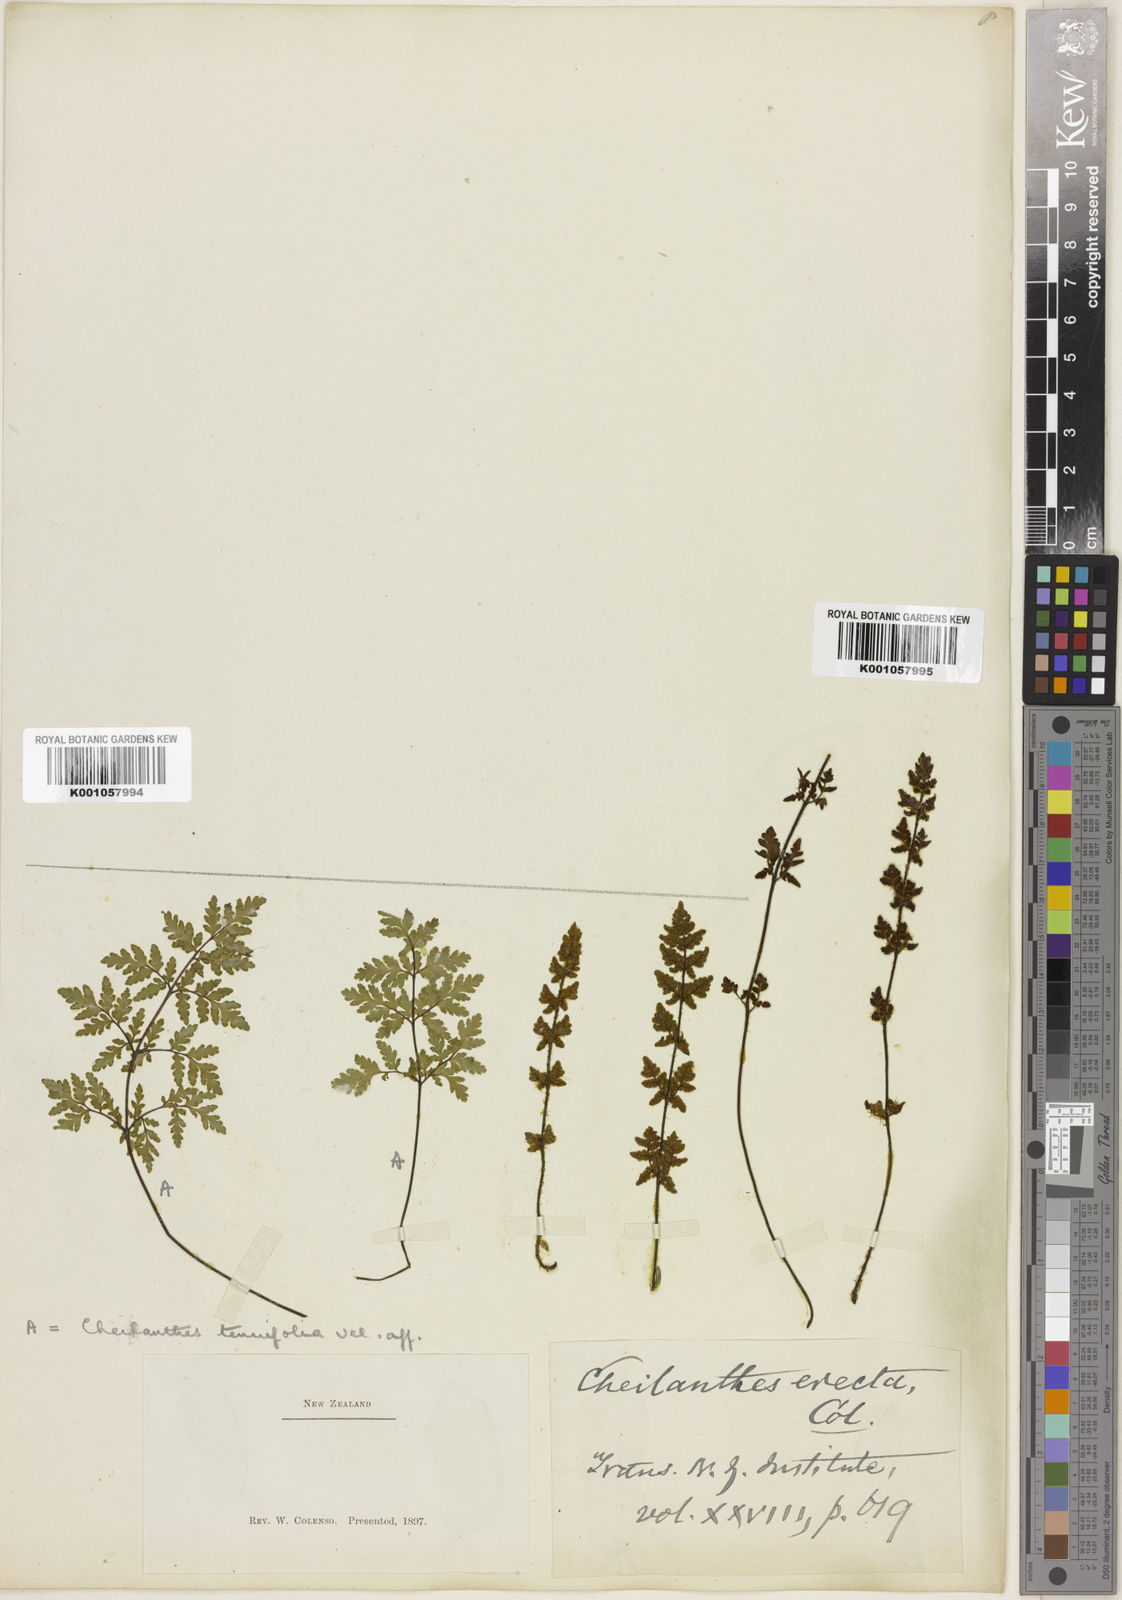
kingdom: Plantae
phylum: Tracheophyta
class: Polypodiopsida
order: Polypodiales
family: Pteridaceae
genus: Cheilanthes
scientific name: Cheilanthes sieberi
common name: Mulga fern
